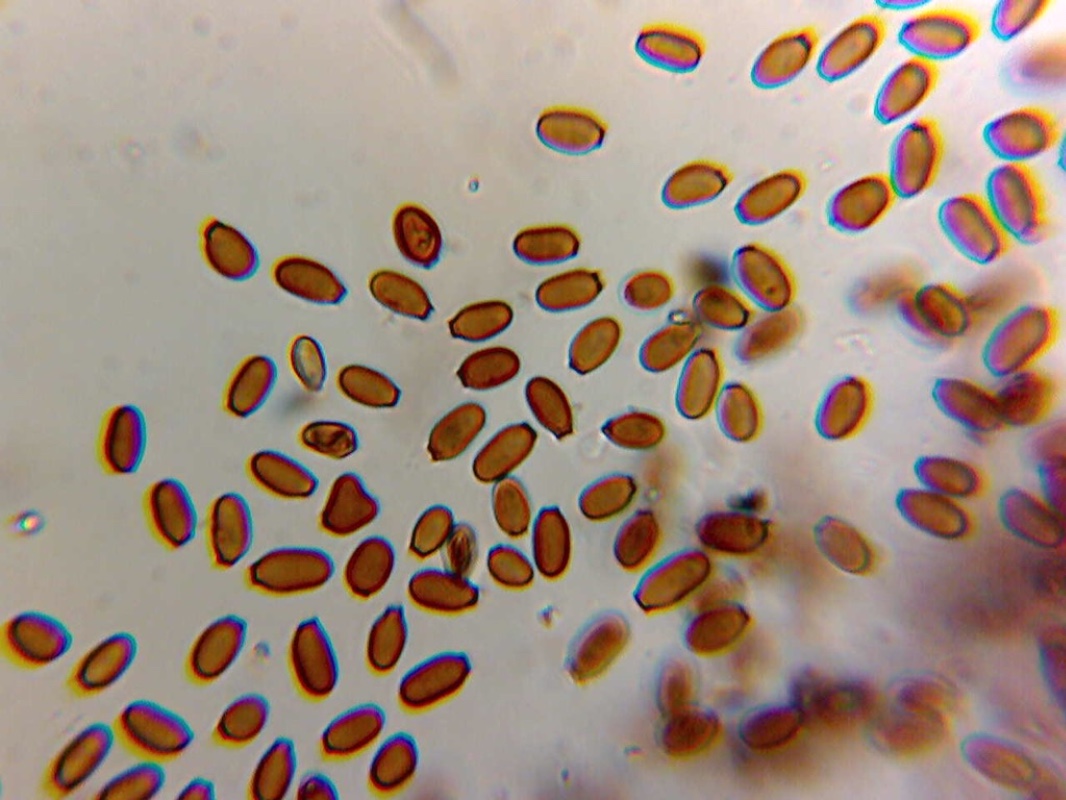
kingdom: Fungi
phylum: Basidiomycota
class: Agaricomycetes
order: Boletales
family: Paxillaceae
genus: Melanogaster
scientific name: Melanogaster broomeanus
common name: broget slimtrøffel
